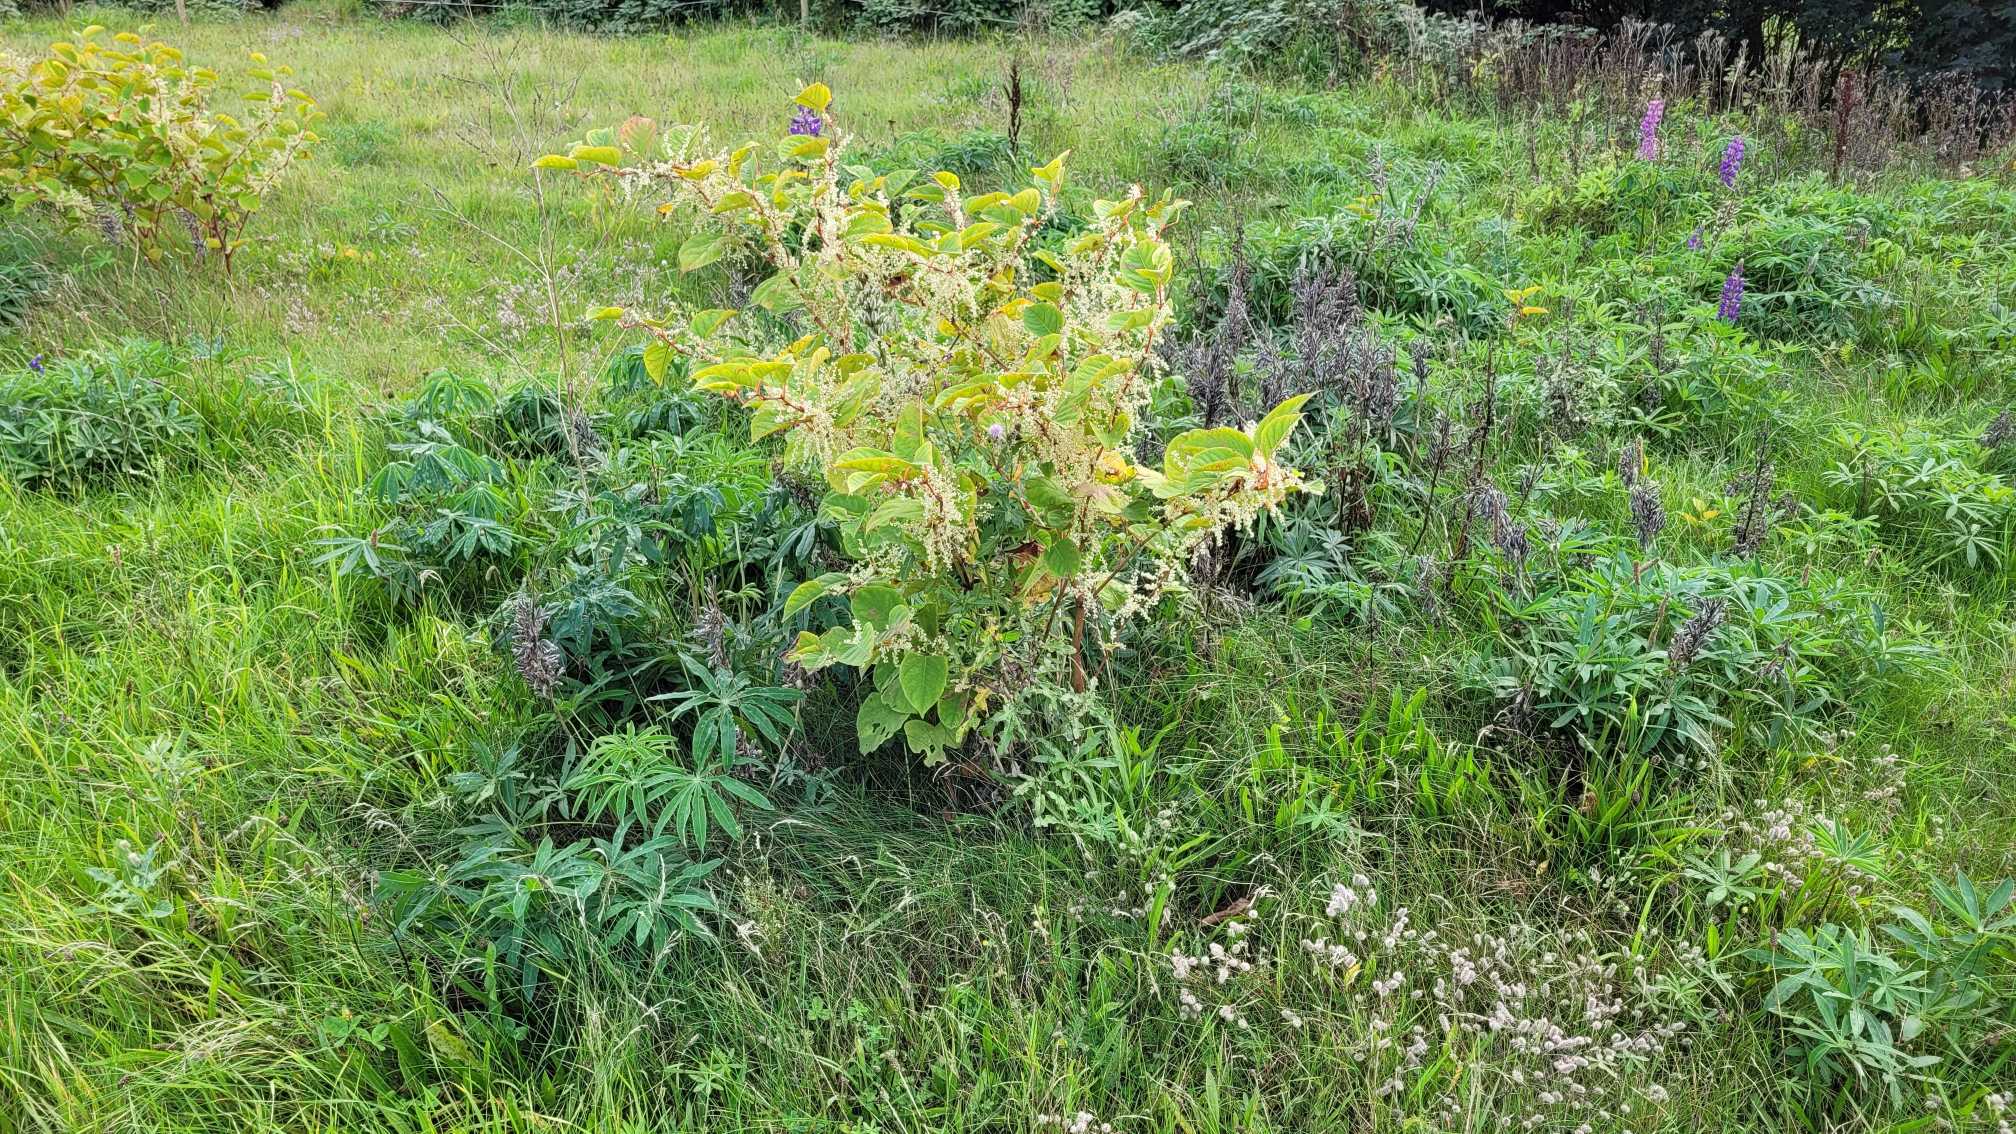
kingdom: Plantae
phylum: Tracheophyta
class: Magnoliopsida
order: Caryophyllales
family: Polygonaceae
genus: Reynoutria
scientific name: Reynoutria japonica
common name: Japan-pileurt
